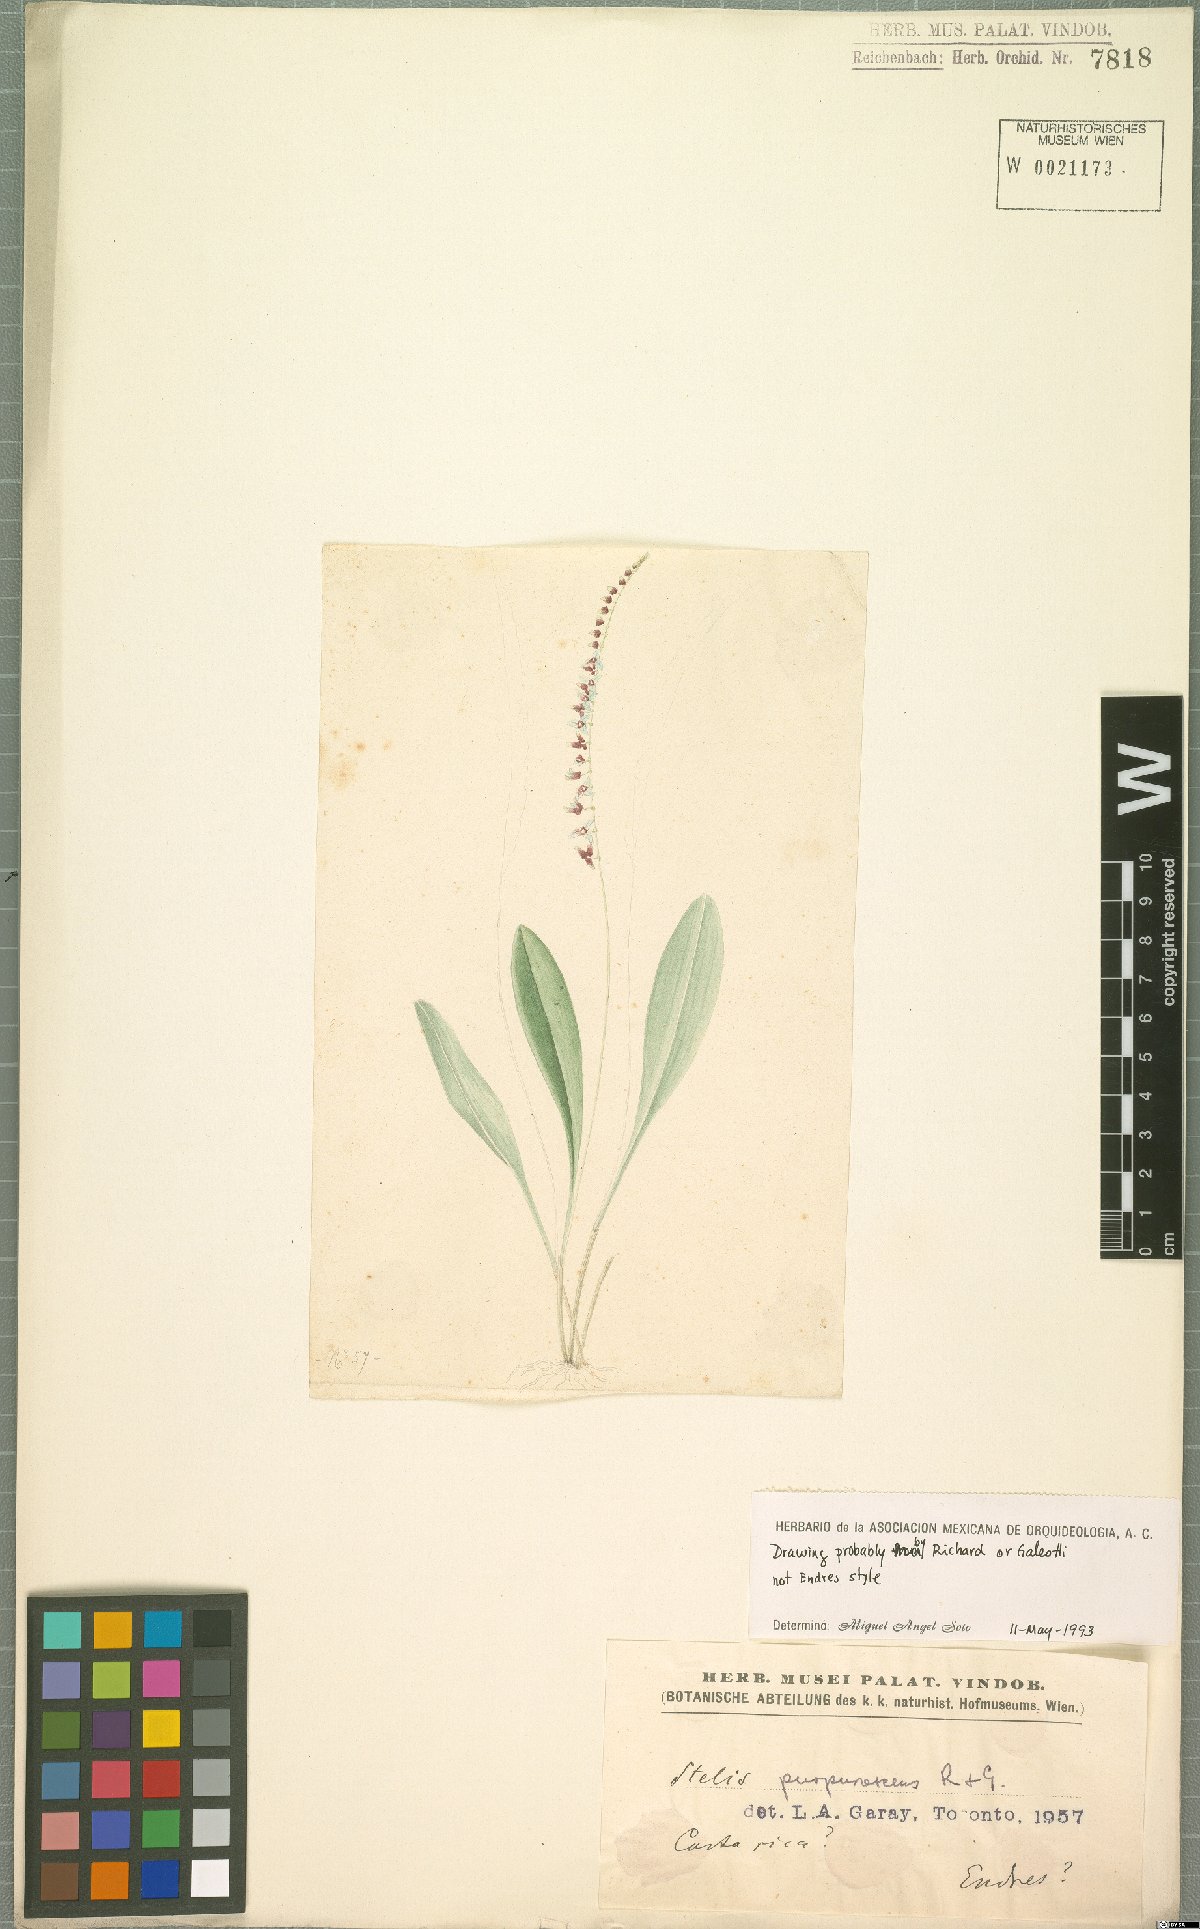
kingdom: Plantae
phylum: Tracheophyta
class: Liliopsida
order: Asparagales
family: Orchidaceae
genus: Stelis
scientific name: Stelis purpurascens
